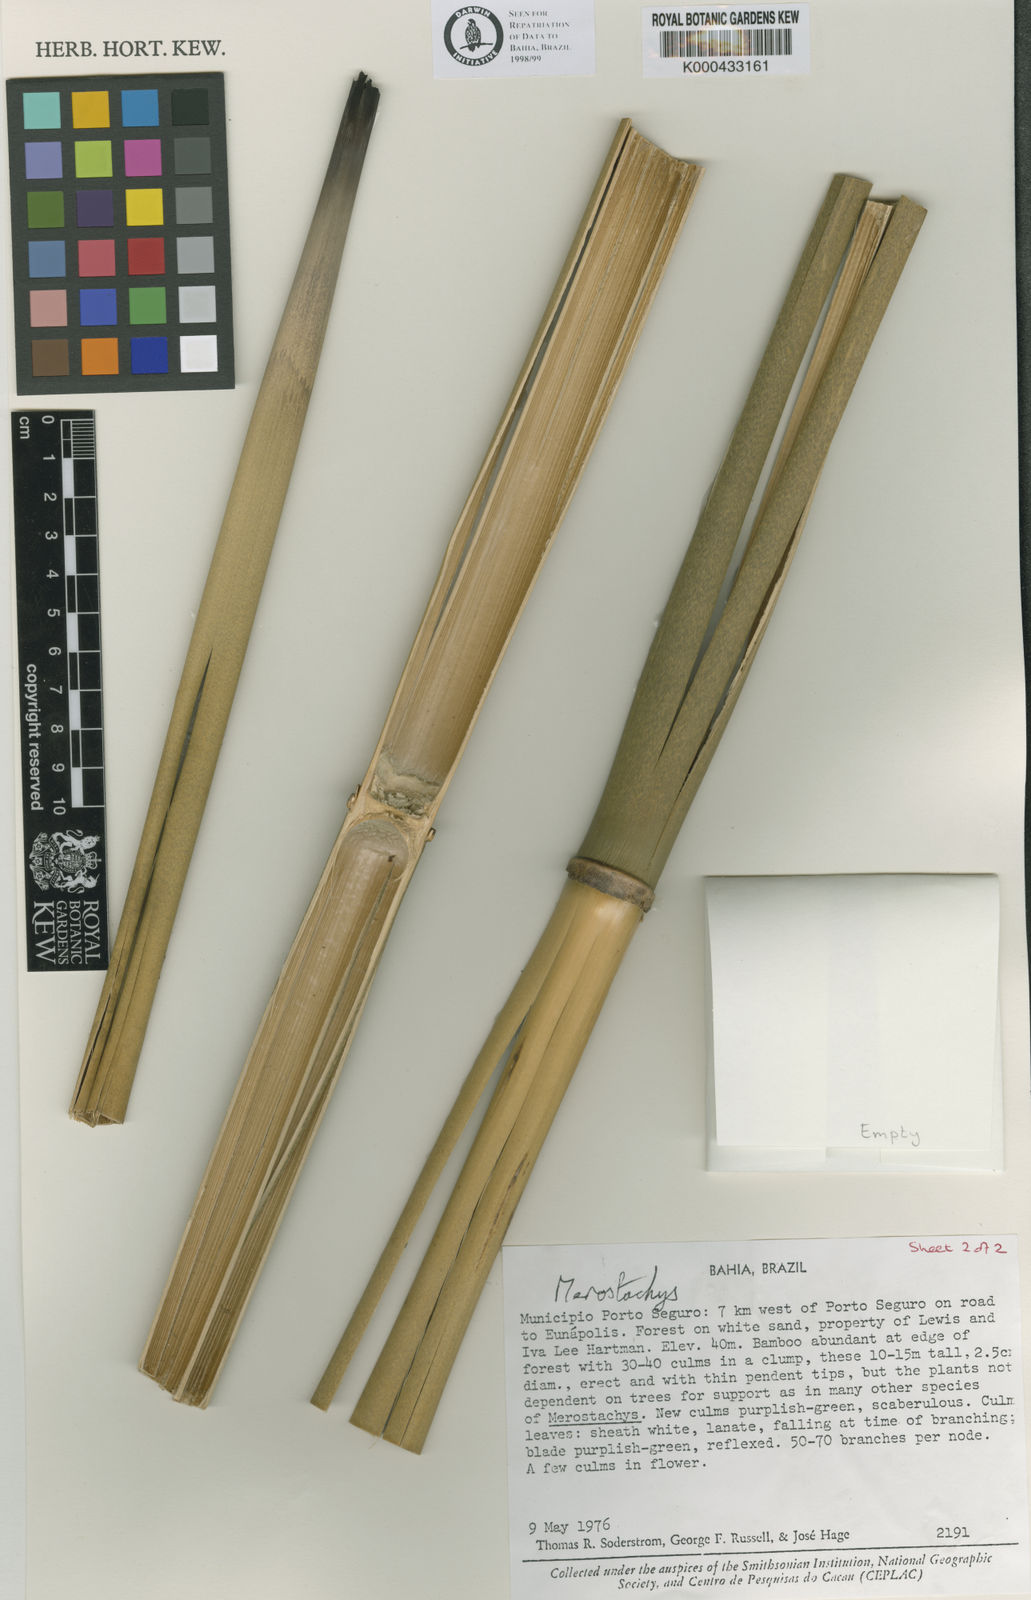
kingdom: Plantae
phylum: Tracheophyta
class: Liliopsida
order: Poales
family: Poaceae
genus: Merostachys
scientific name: Merostachys lanata
